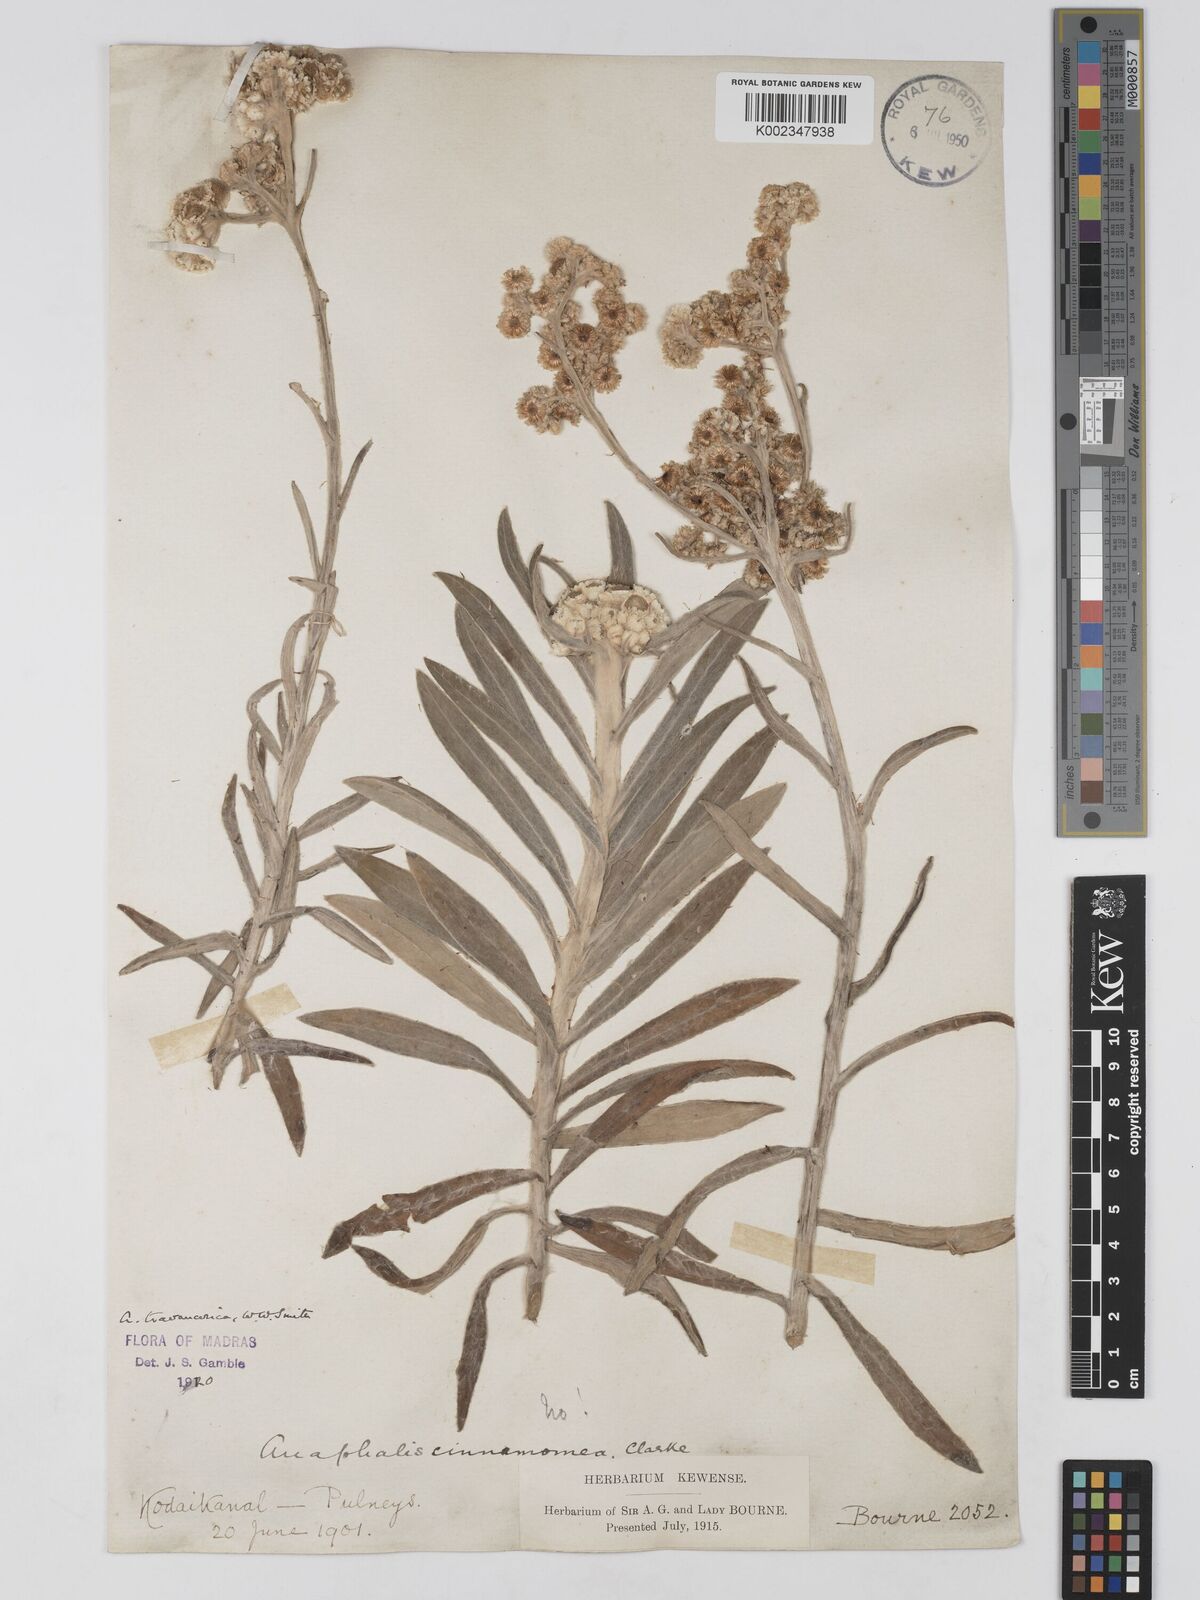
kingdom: Plantae
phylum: Tracheophyta
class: Magnoliopsida
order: Asterales
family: Asteraceae
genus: Anaphalis
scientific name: Anaphalis travancorica
